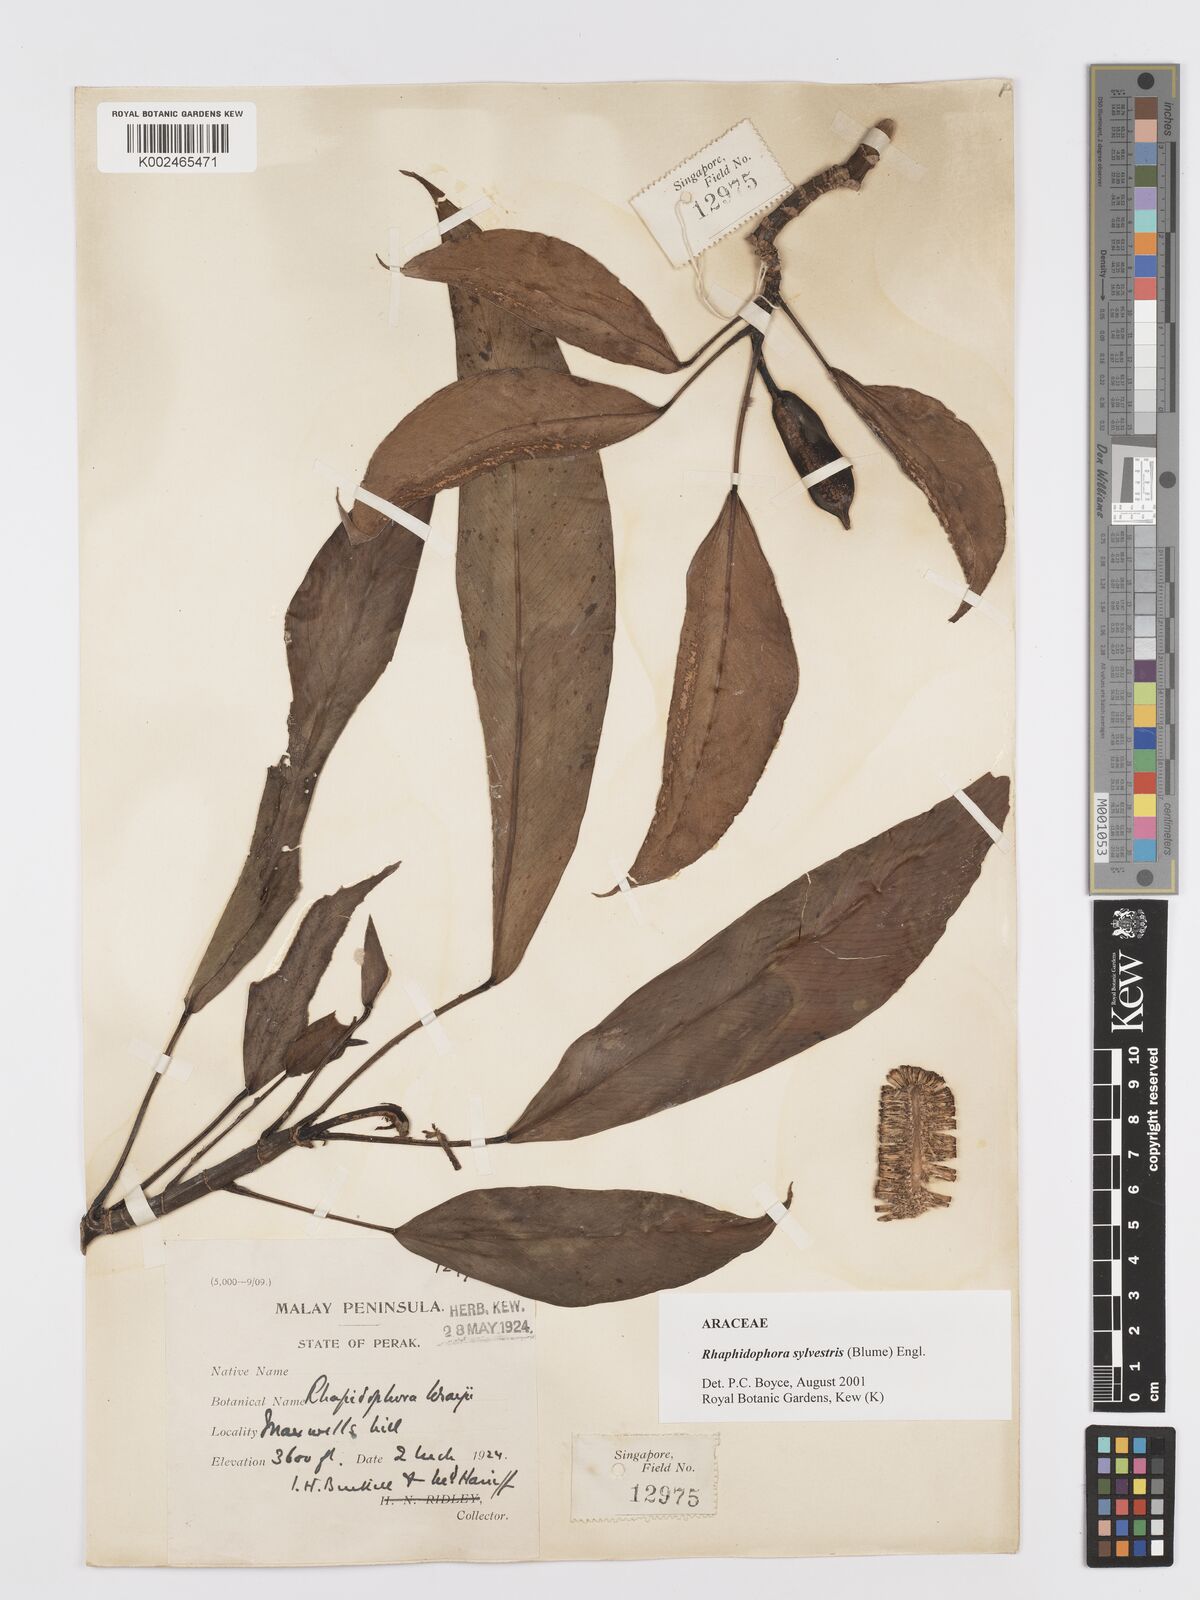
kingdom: Plantae
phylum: Tracheophyta
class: Liliopsida
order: Alismatales
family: Araceae
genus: Rhaphidophora
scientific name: Rhaphidophora sylvestris
